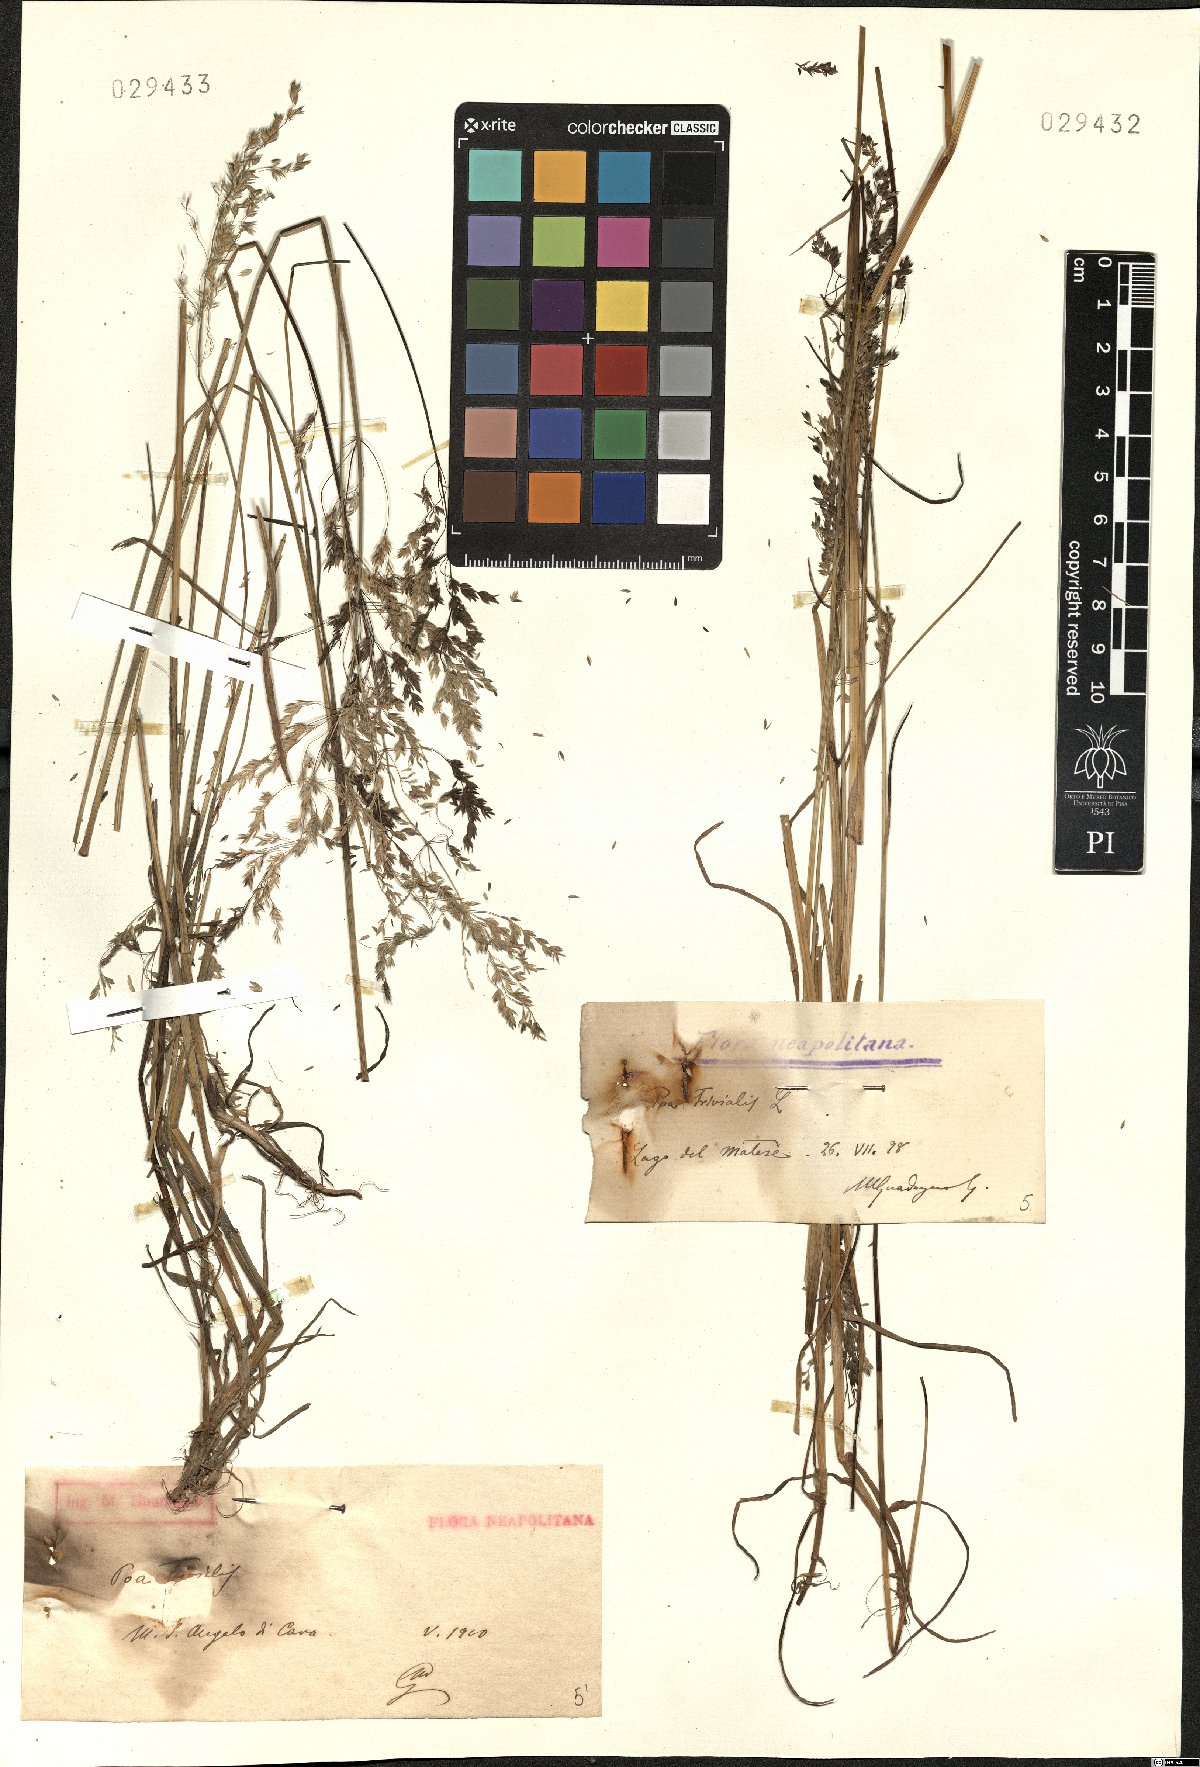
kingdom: Plantae
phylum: Tracheophyta
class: Liliopsida
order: Poales
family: Poaceae
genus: Poa
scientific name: Poa trivialis
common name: Rough bluegrass
